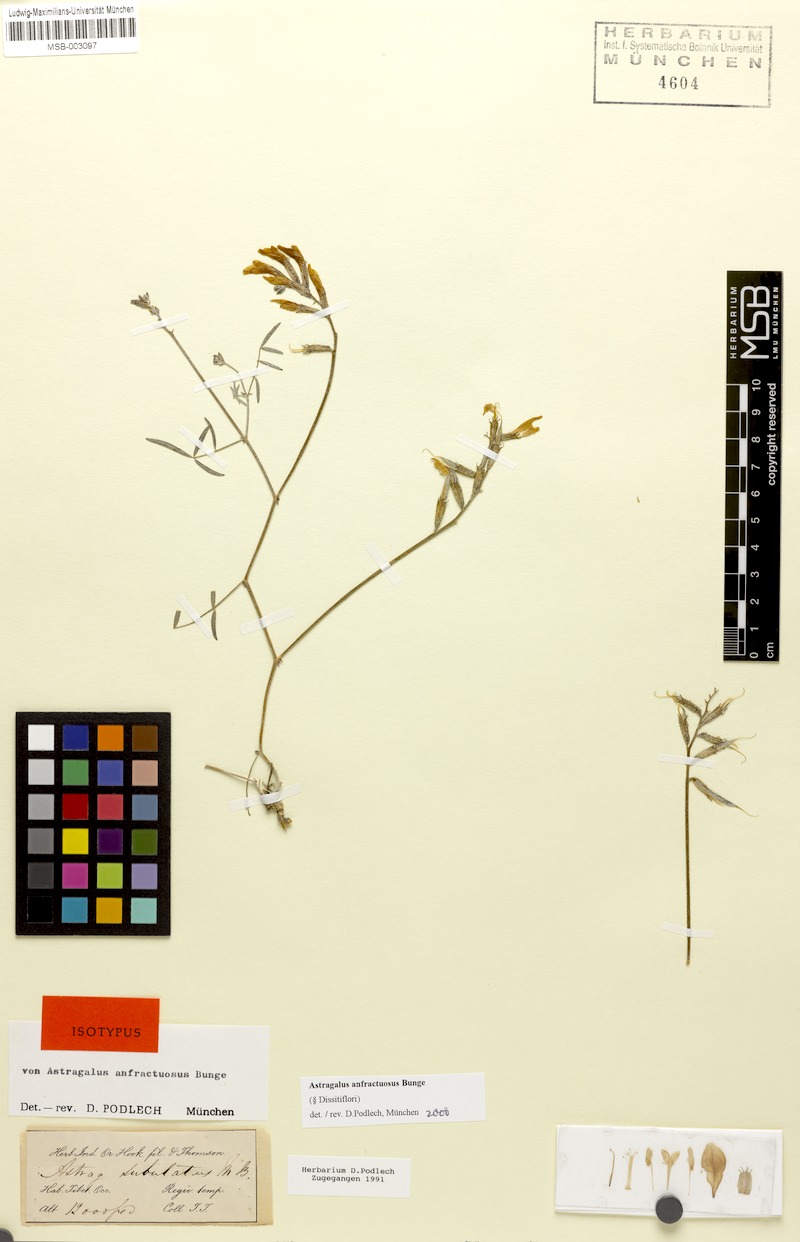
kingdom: Plantae
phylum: Tracheophyta
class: Magnoliopsida
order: Fabales
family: Fabaceae
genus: Astragalus
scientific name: Astragalus anfractuosus
